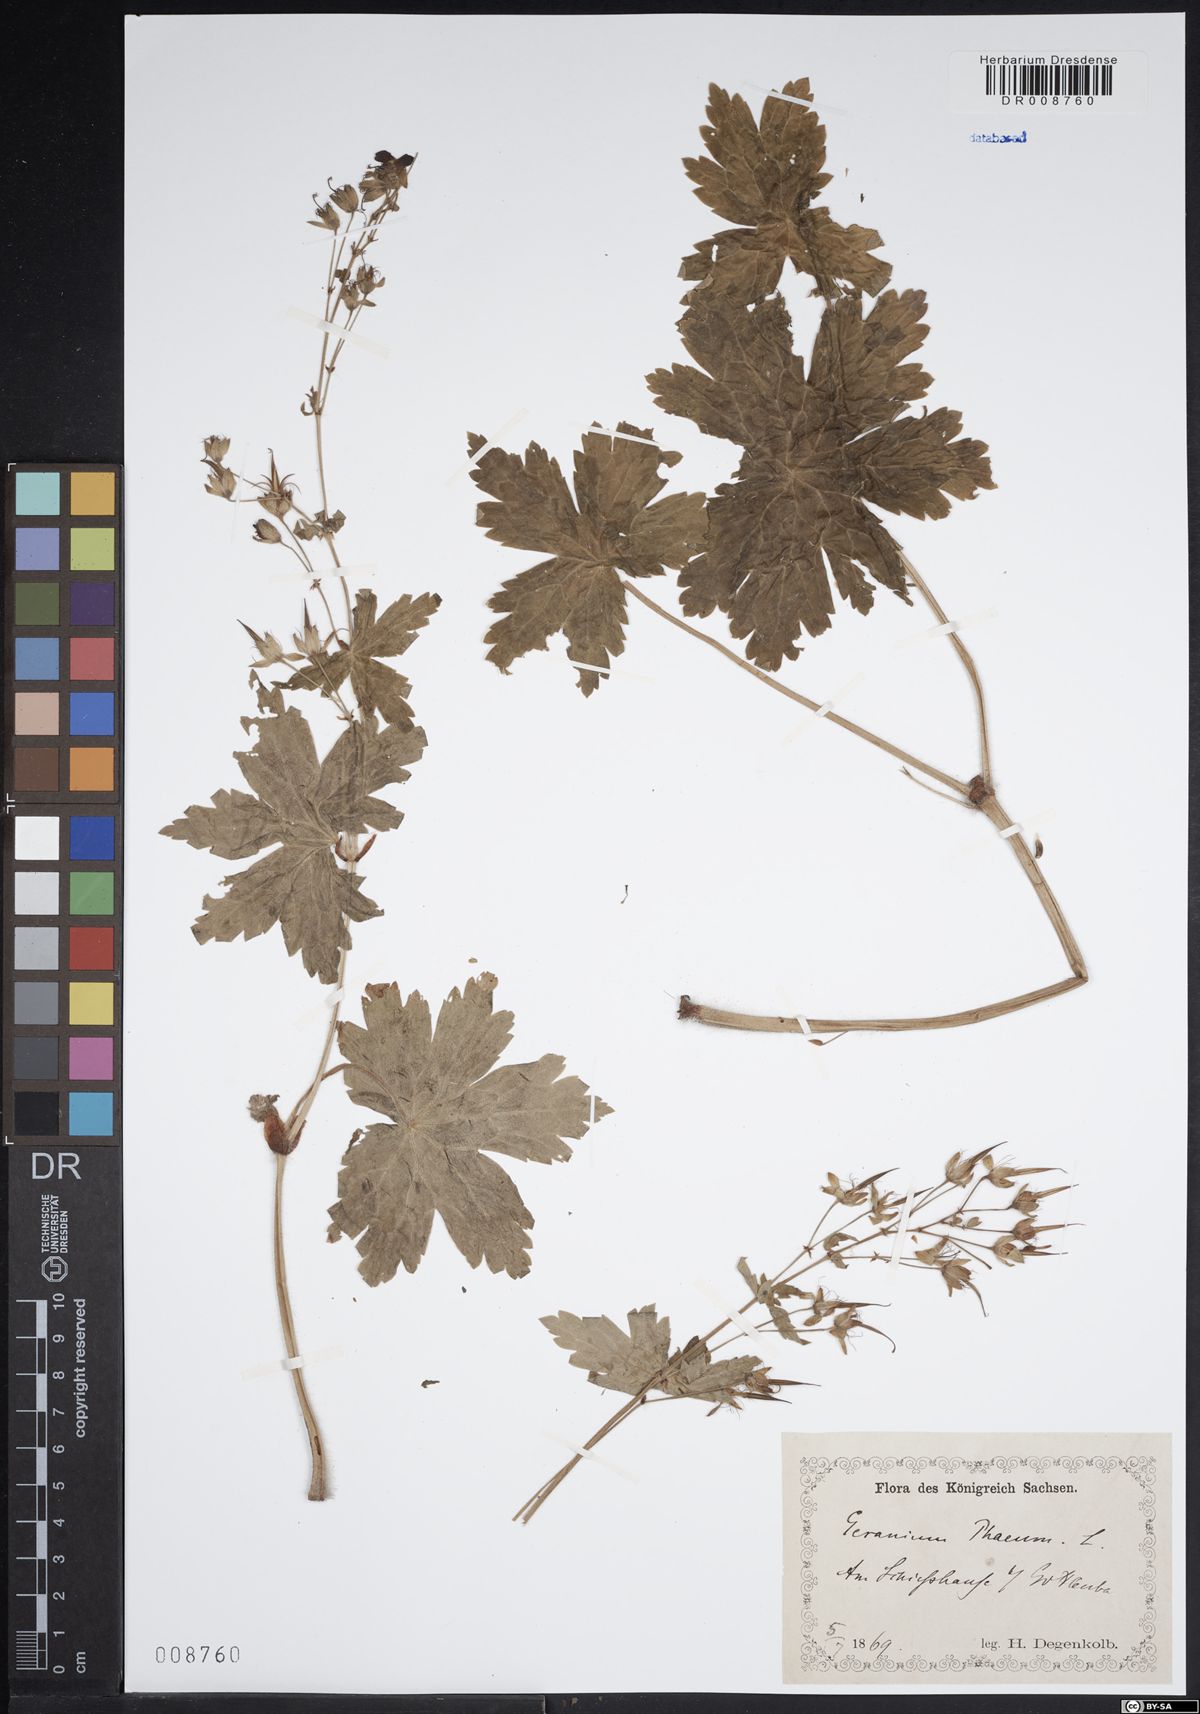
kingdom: Plantae
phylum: Tracheophyta
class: Magnoliopsida
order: Geraniales
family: Geraniaceae
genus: Geranium
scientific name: Geranium phaeum
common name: Dusky crane's-bill
